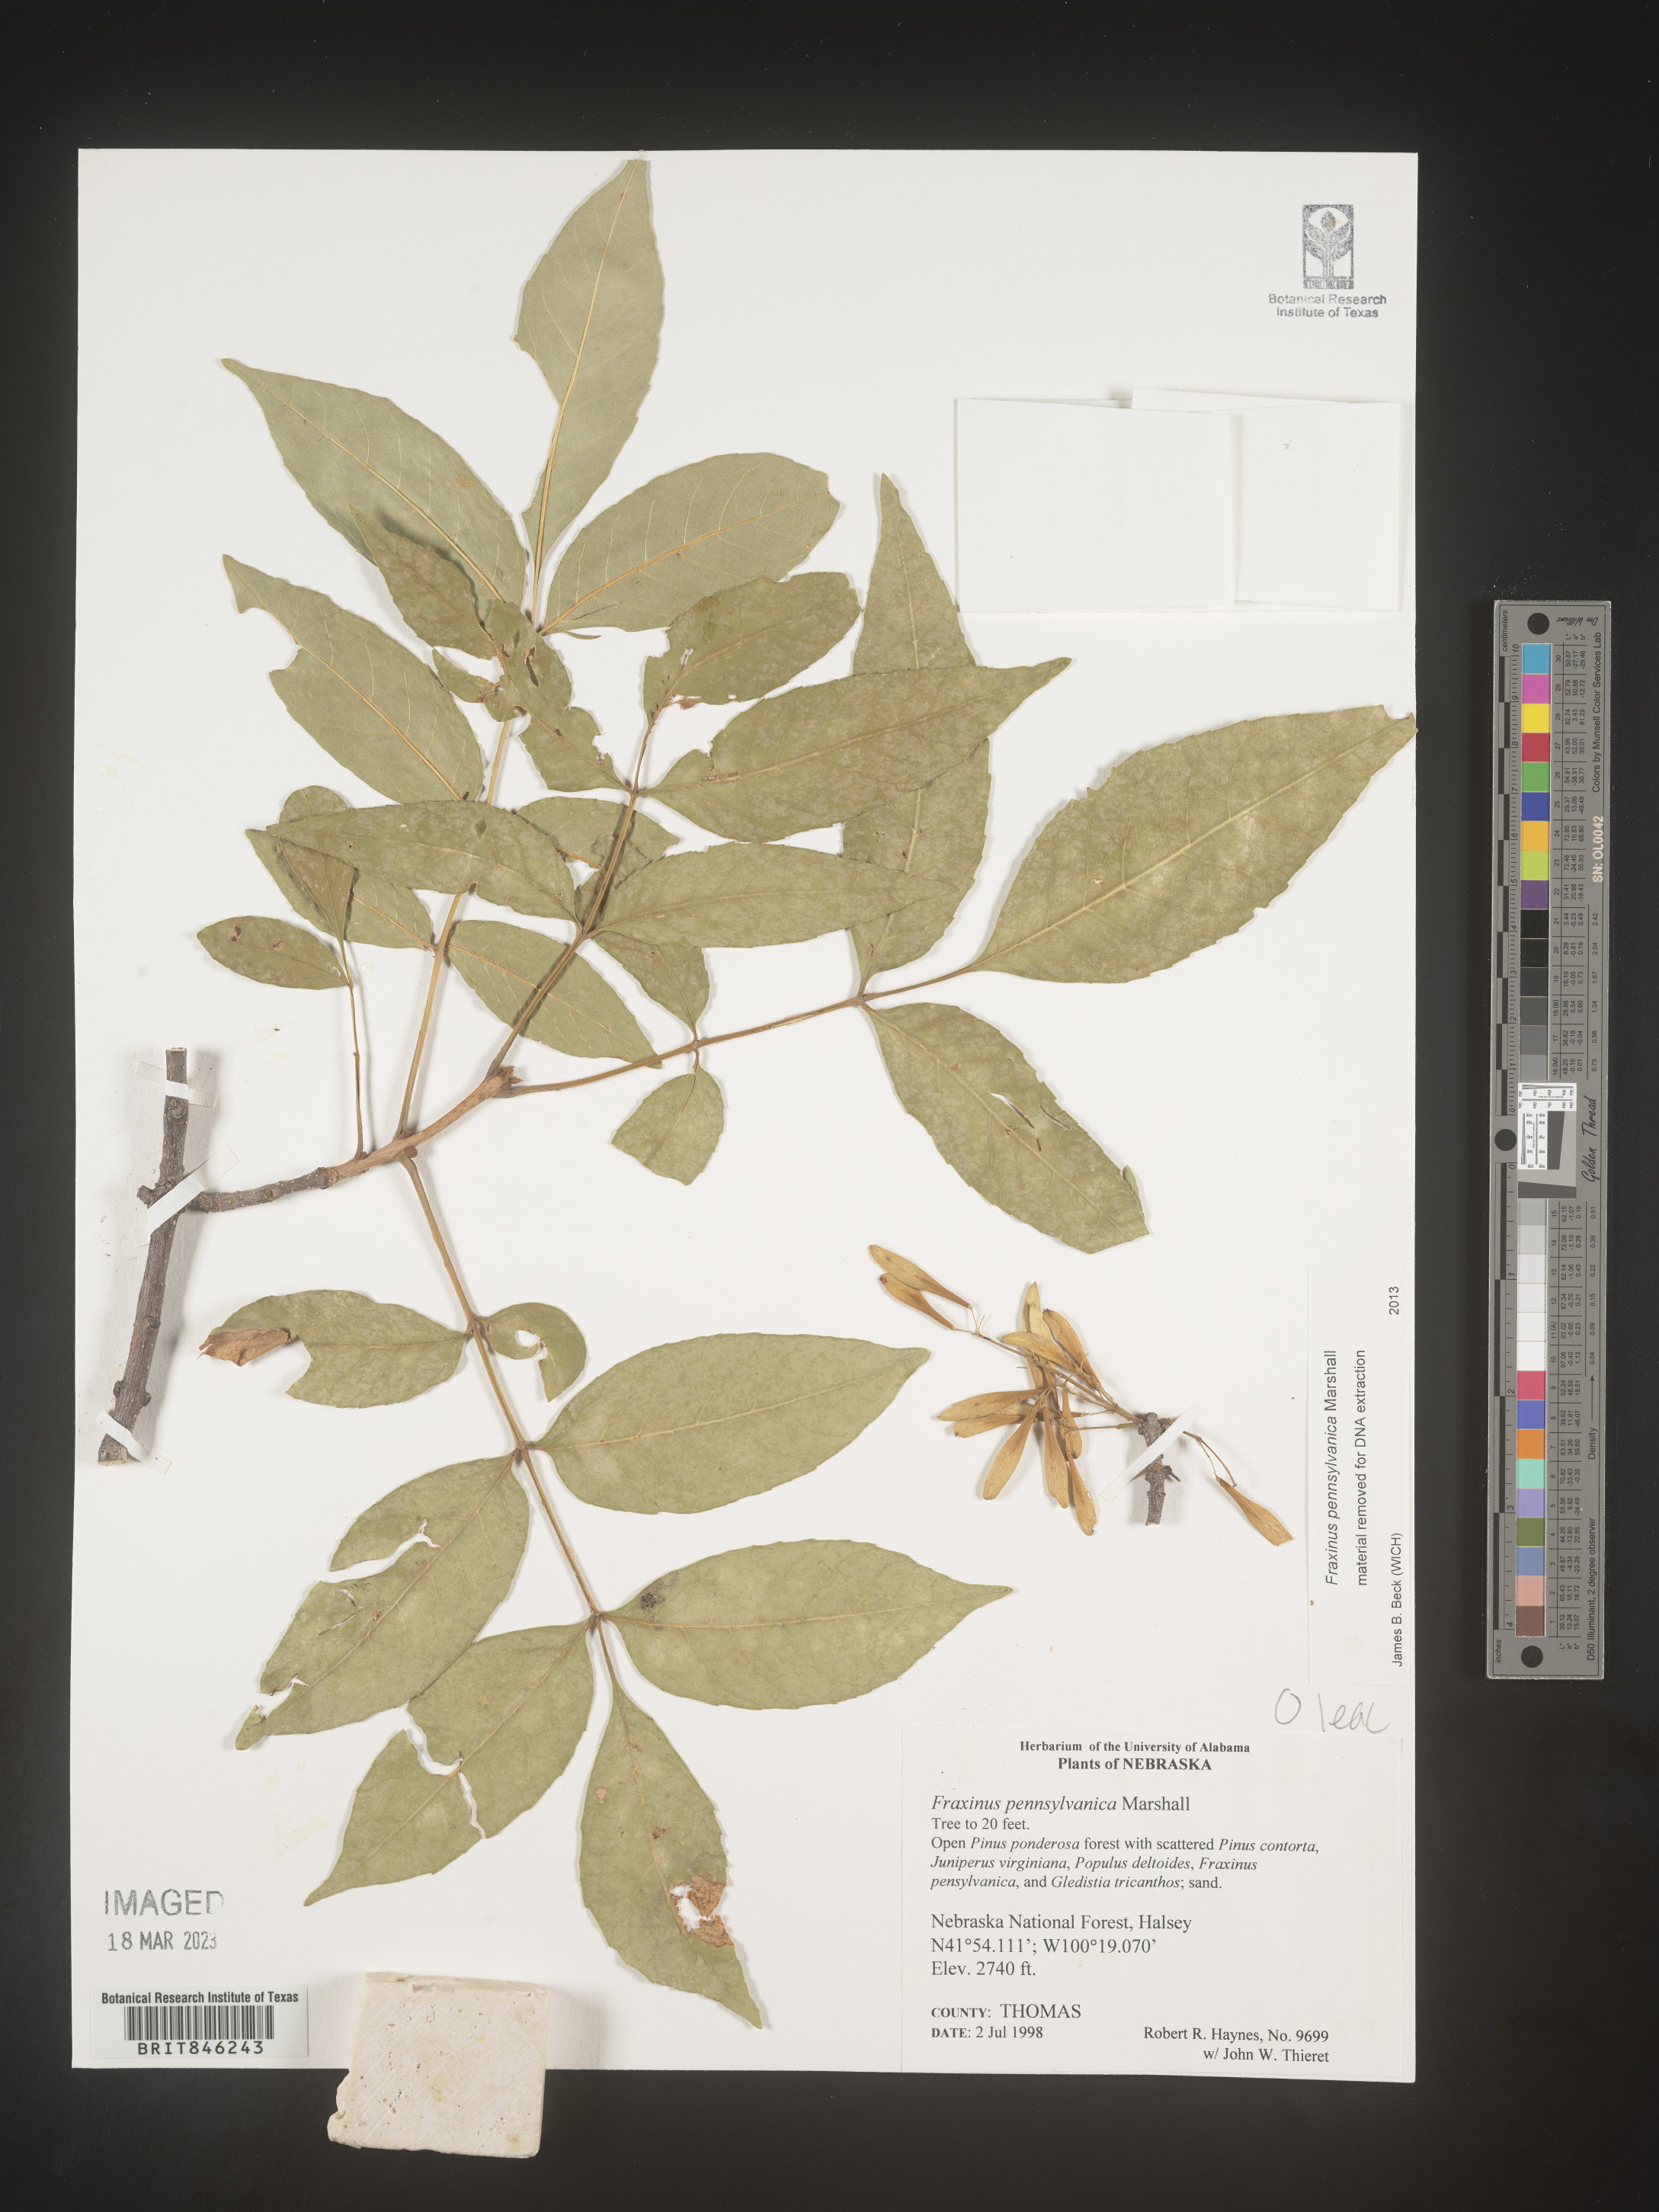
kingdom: Plantae
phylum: Tracheophyta
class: Magnoliopsida
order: Lamiales
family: Oleaceae
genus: Fraxinus
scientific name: Fraxinus pennsylvanica
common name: Green ash
